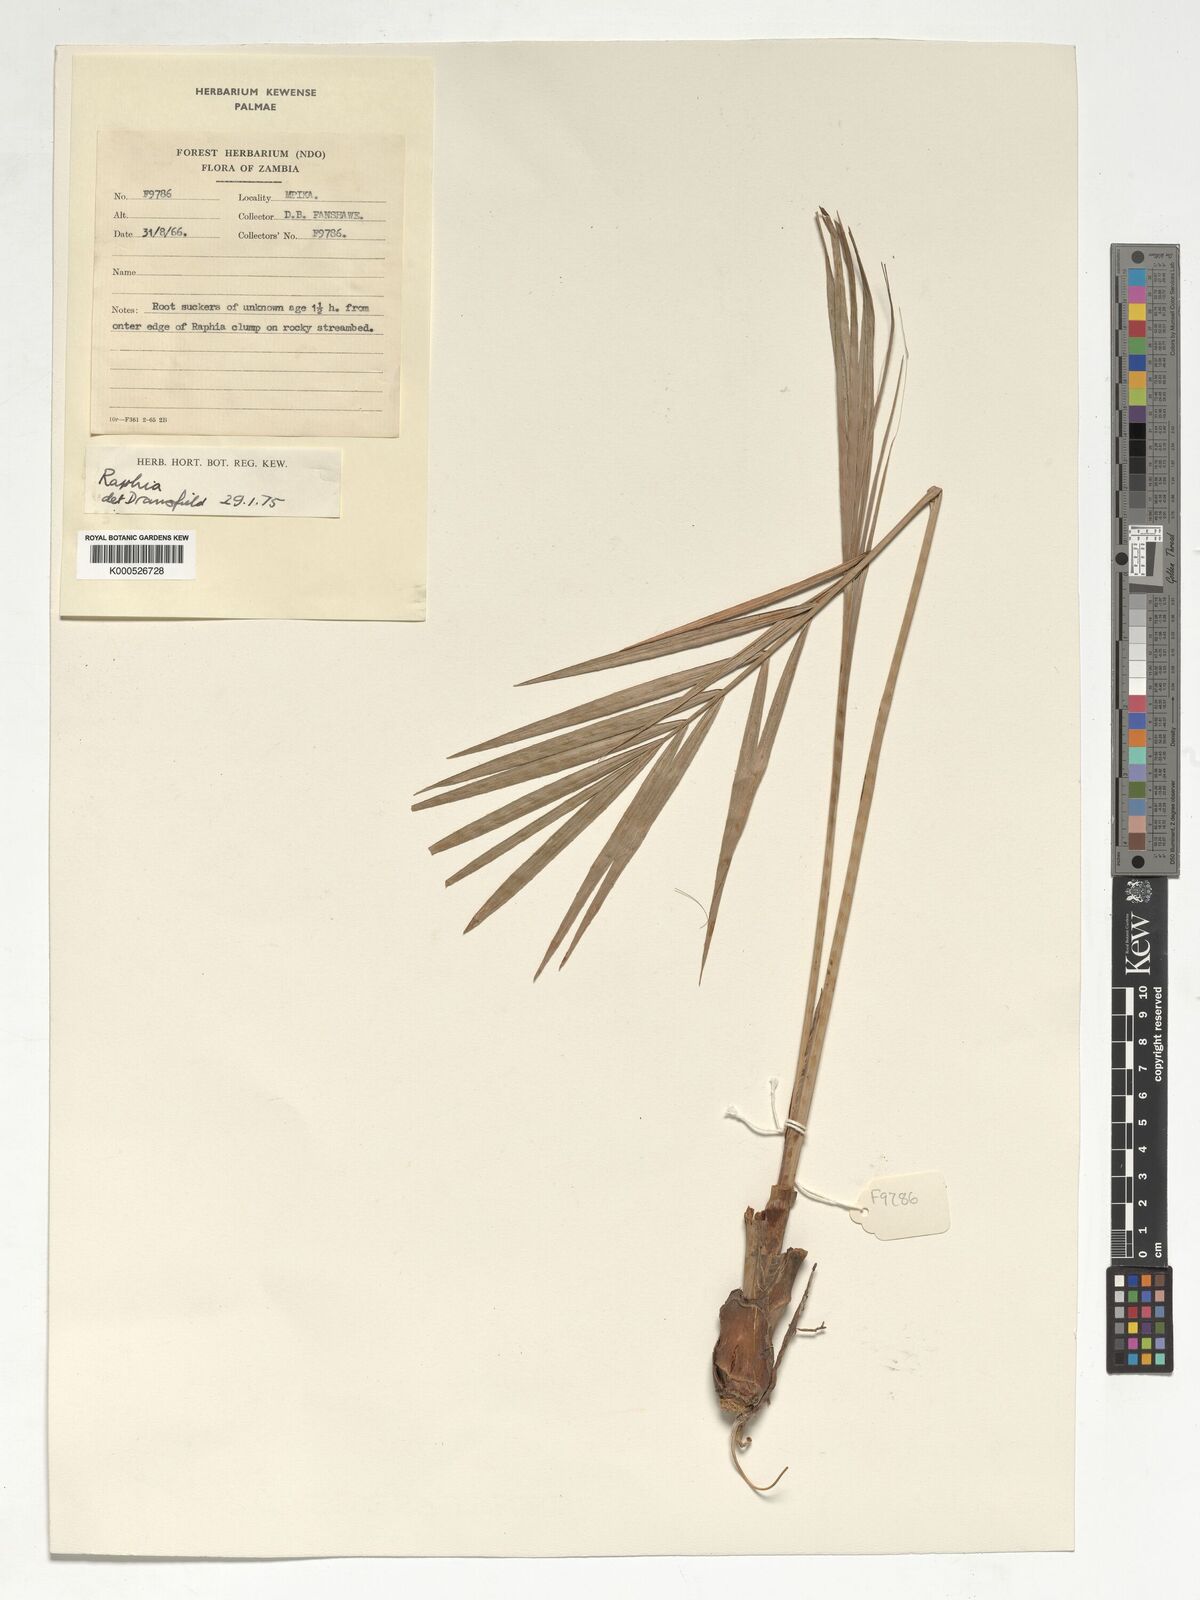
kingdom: Plantae
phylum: Tracheophyta
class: Liliopsida
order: Arecales
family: Arecaceae
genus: Raphia
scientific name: Raphia
